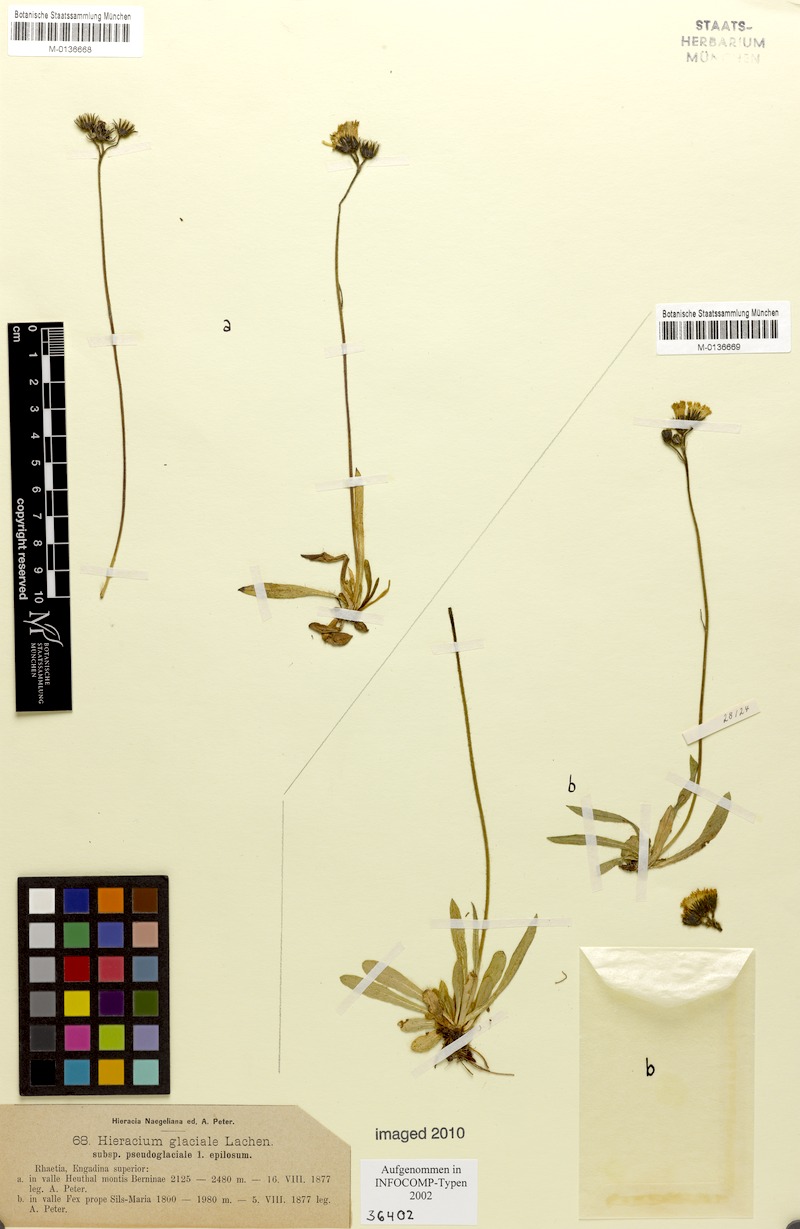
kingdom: Plantae
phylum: Tracheophyta
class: Magnoliopsida
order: Asterales
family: Asteraceae
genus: Pilosella
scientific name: Pilosella glacialis
